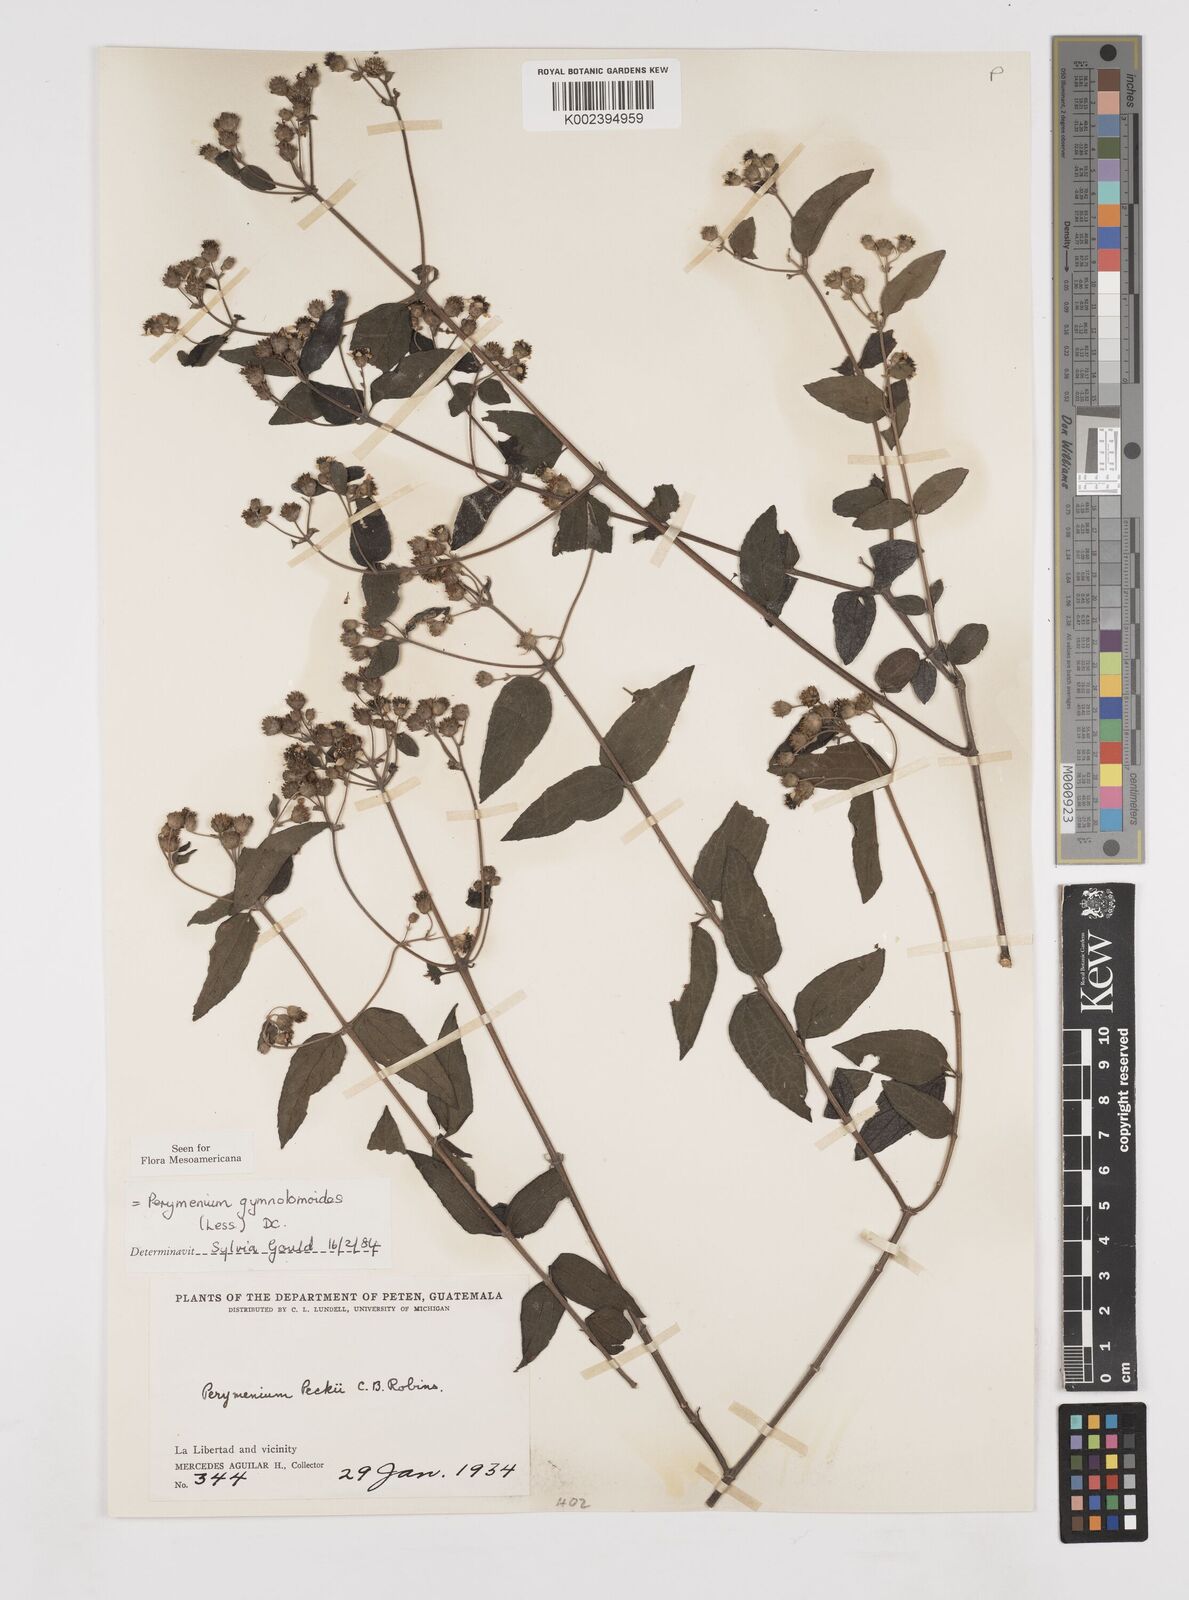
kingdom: Plantae
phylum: Tracheophyta
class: Magnoliopsida
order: Asterales
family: Asteraceae
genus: Perymenium
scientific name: Perymenium gymnolomoides
